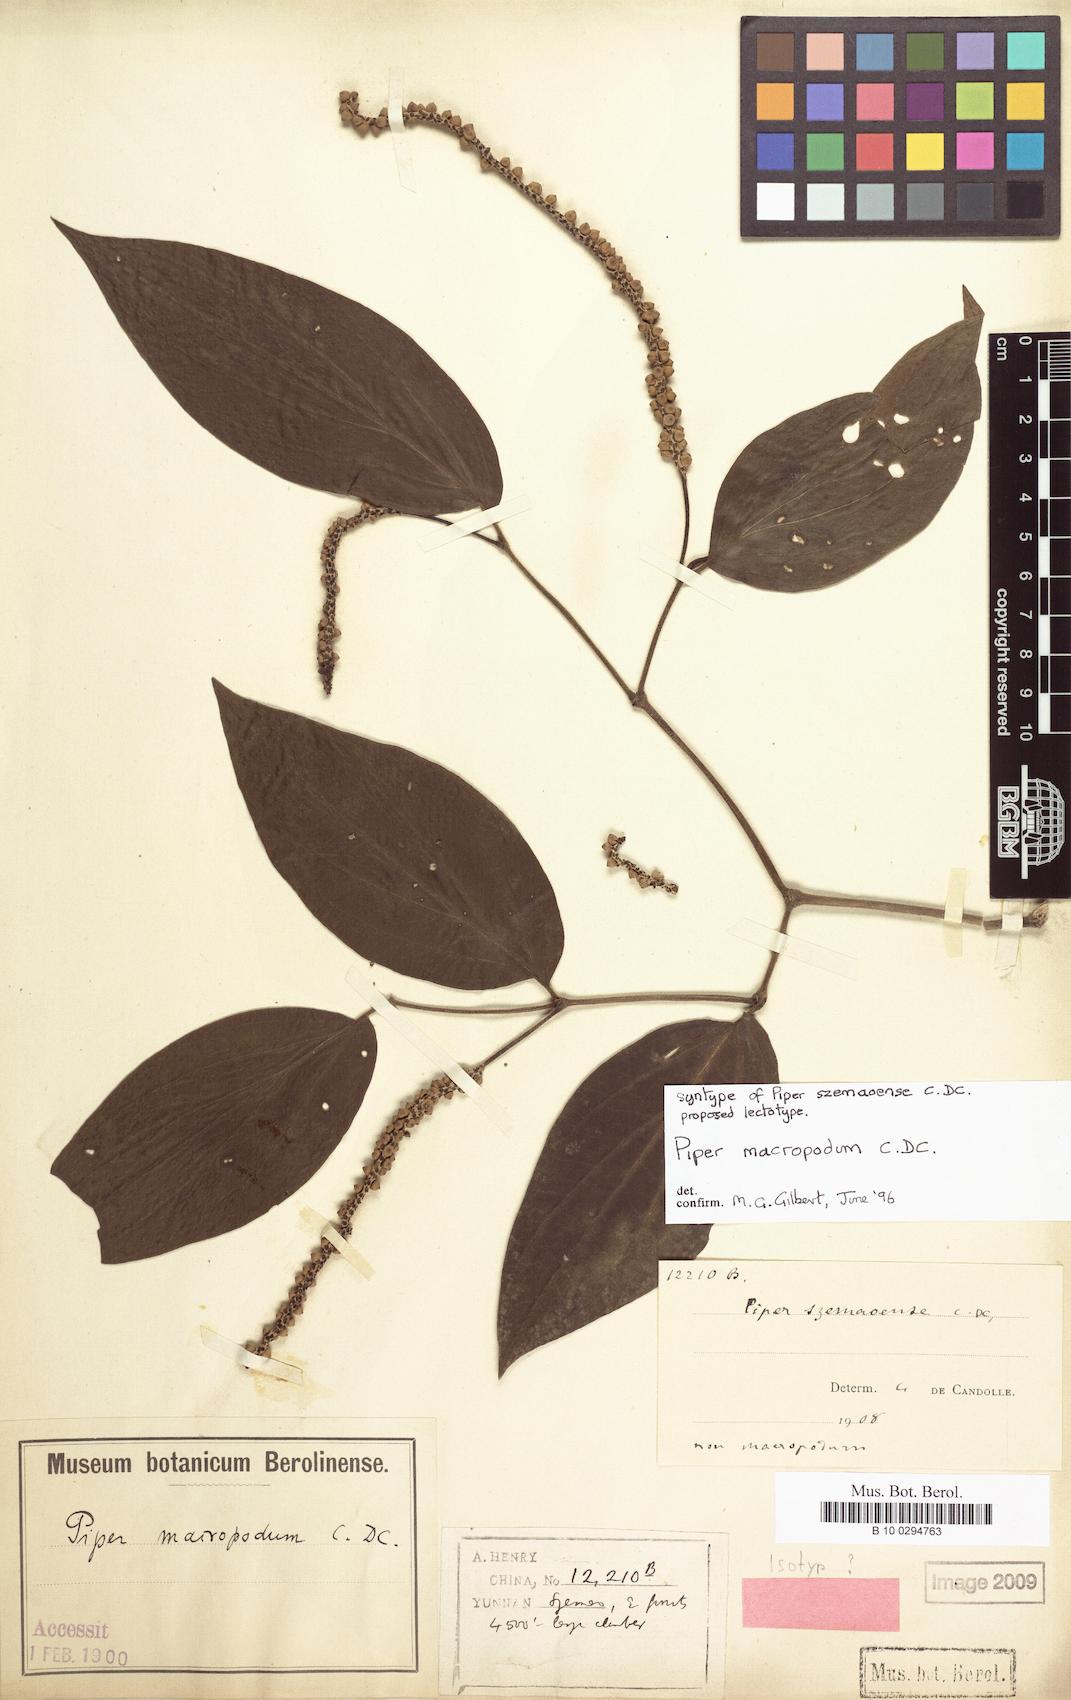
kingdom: Plantae
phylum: Tracheophyta
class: Magnoliopsida
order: Piperales
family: Piperaceae
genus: Piper
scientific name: Piper macropodum
